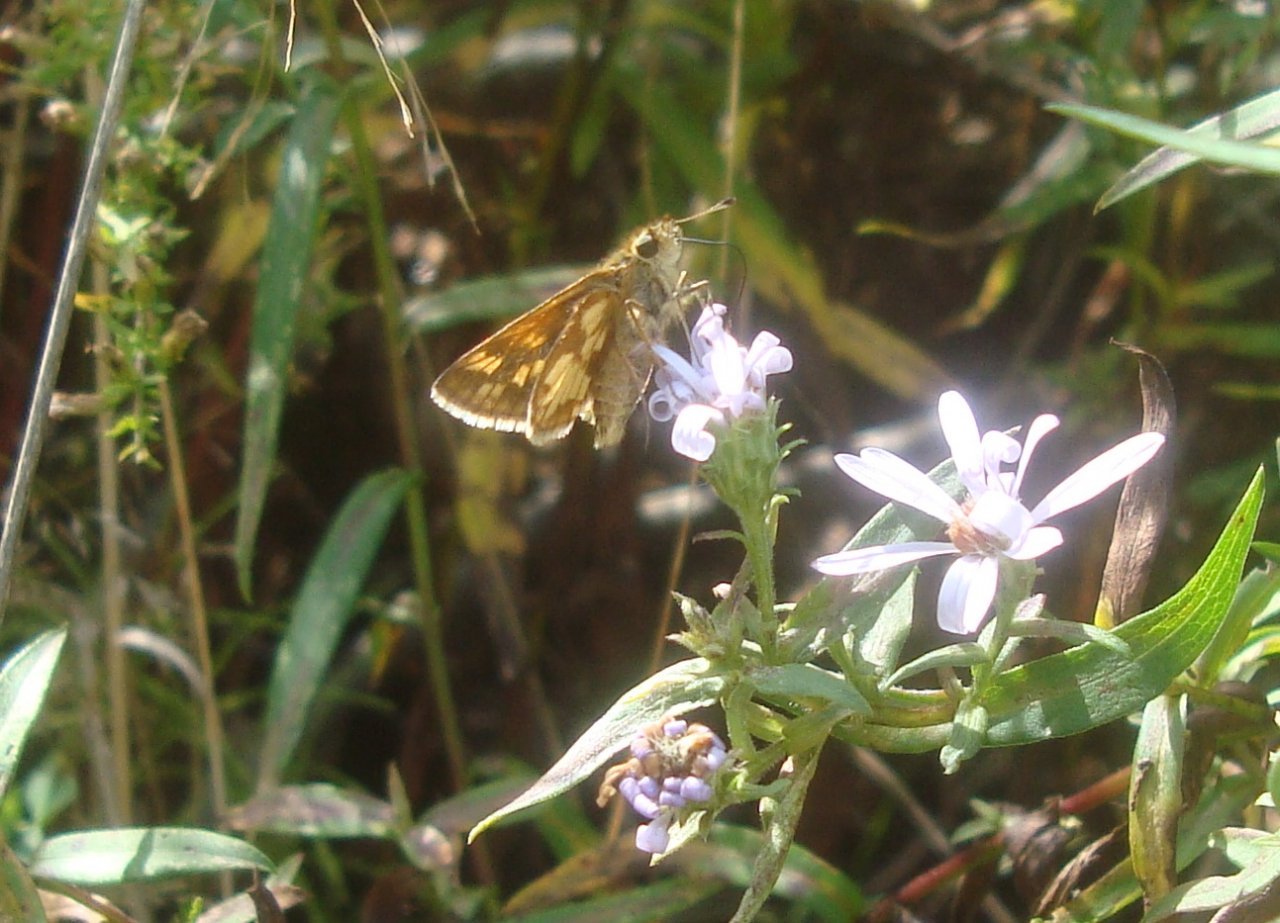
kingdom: Animalia
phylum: Arthropoda
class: Insecta
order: Lepidoptera
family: Hesperiidae
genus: Polites
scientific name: Polites coras
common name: Peck's Skipper
